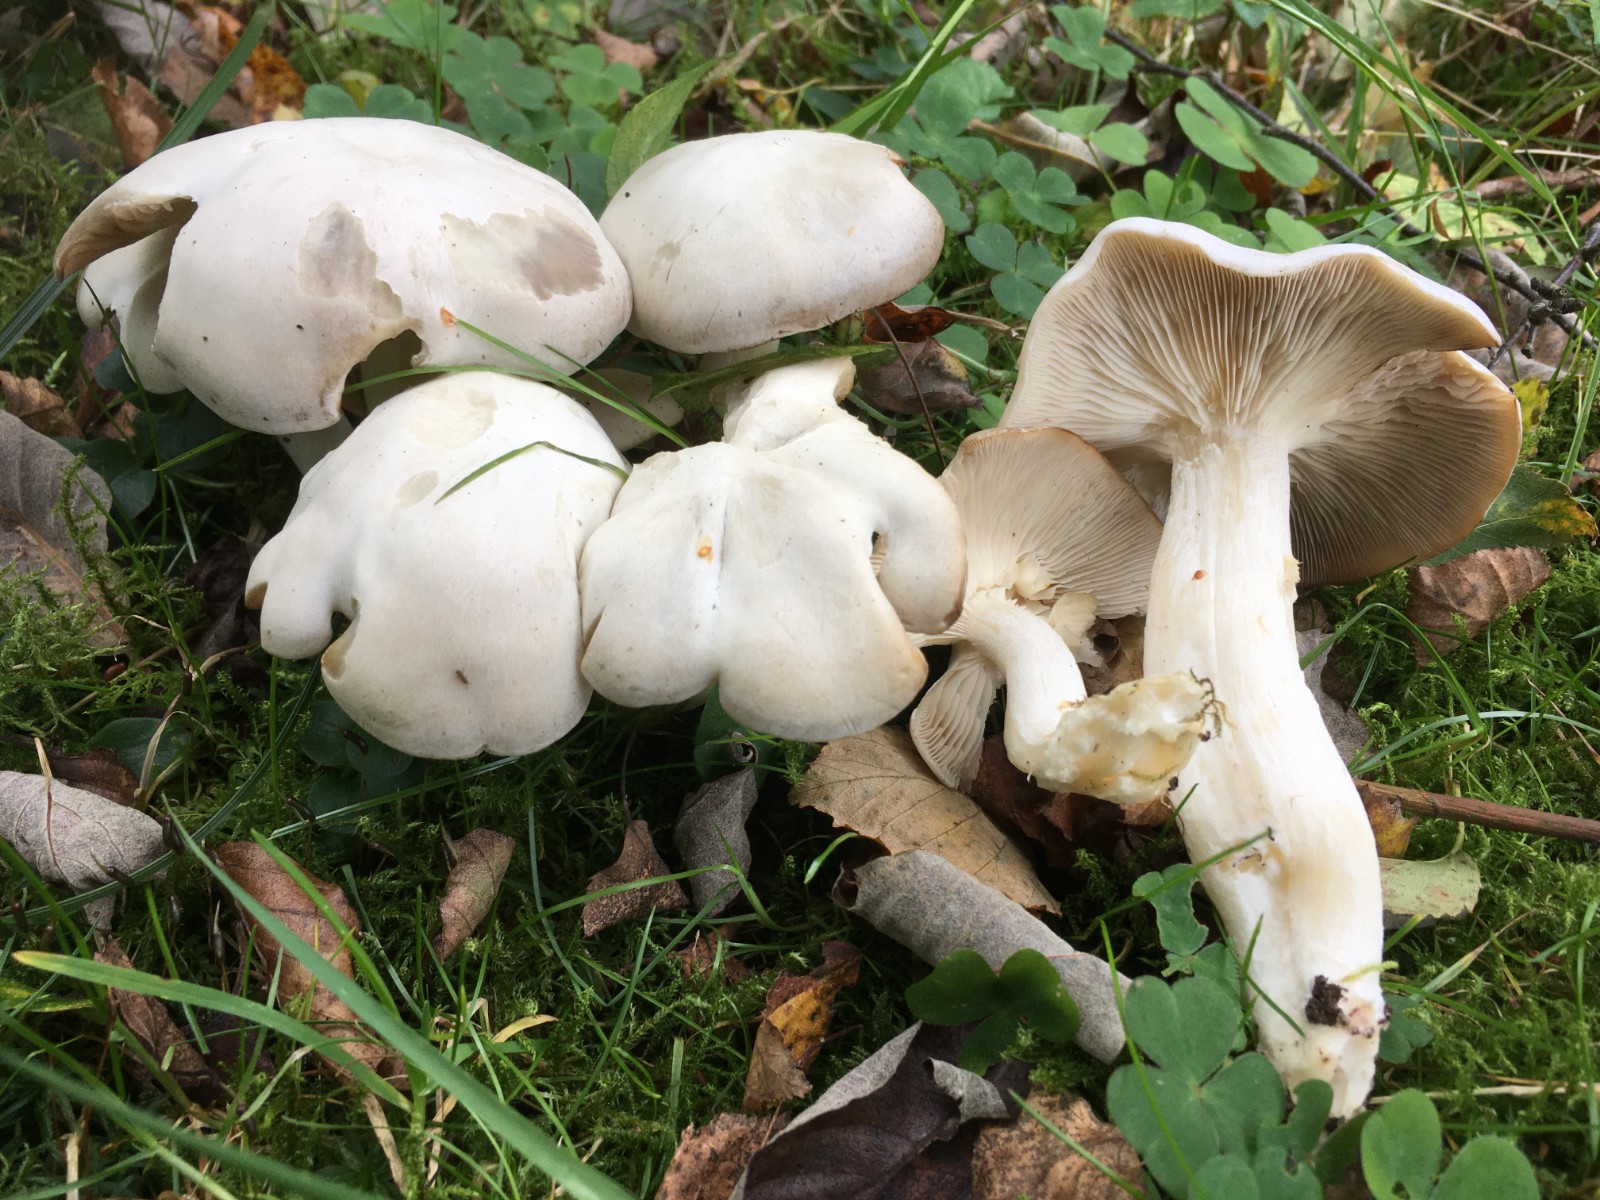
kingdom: Fungi
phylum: Basidiomycota
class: Agaricomycetes
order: Agaricales
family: Tricholomataceae
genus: Leucocybe
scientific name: Leucocybe connata
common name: knippe-tragthat
